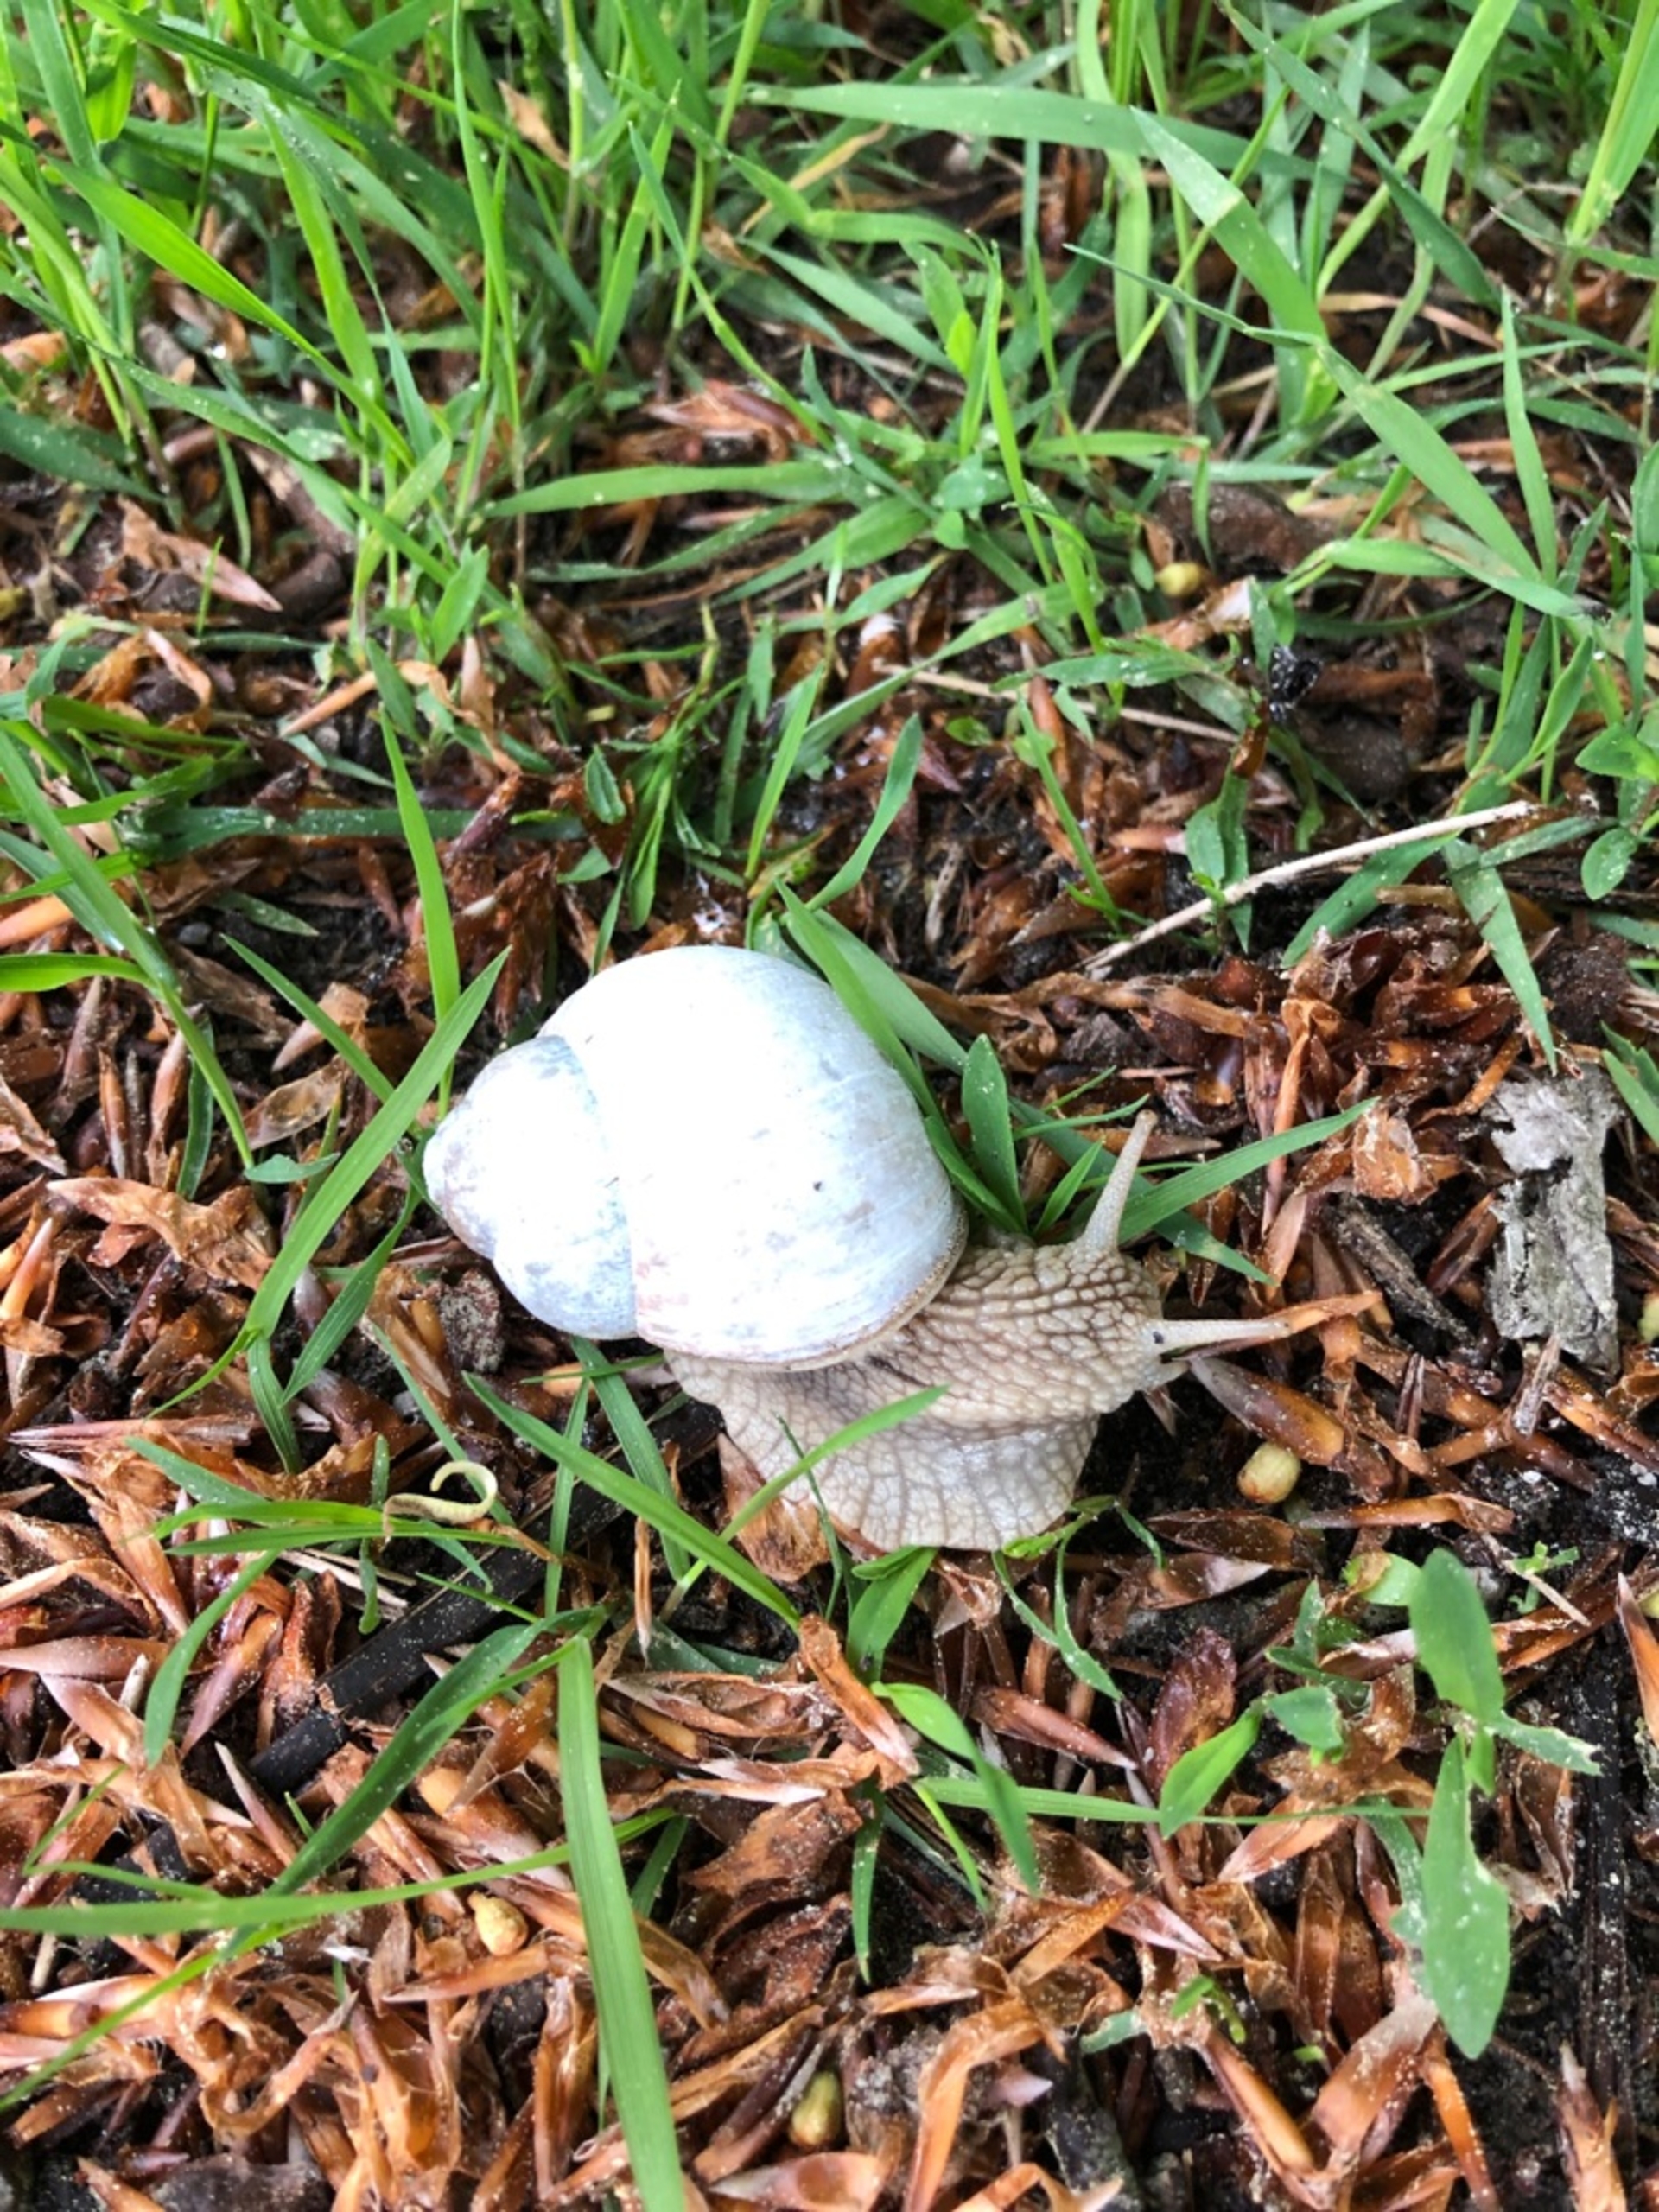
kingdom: Animalia
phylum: Mollusca
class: Gastropoda
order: Stylommatophora
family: Helicidae
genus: Helix
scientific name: Helix pomatia
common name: Vinbjergsnegl
